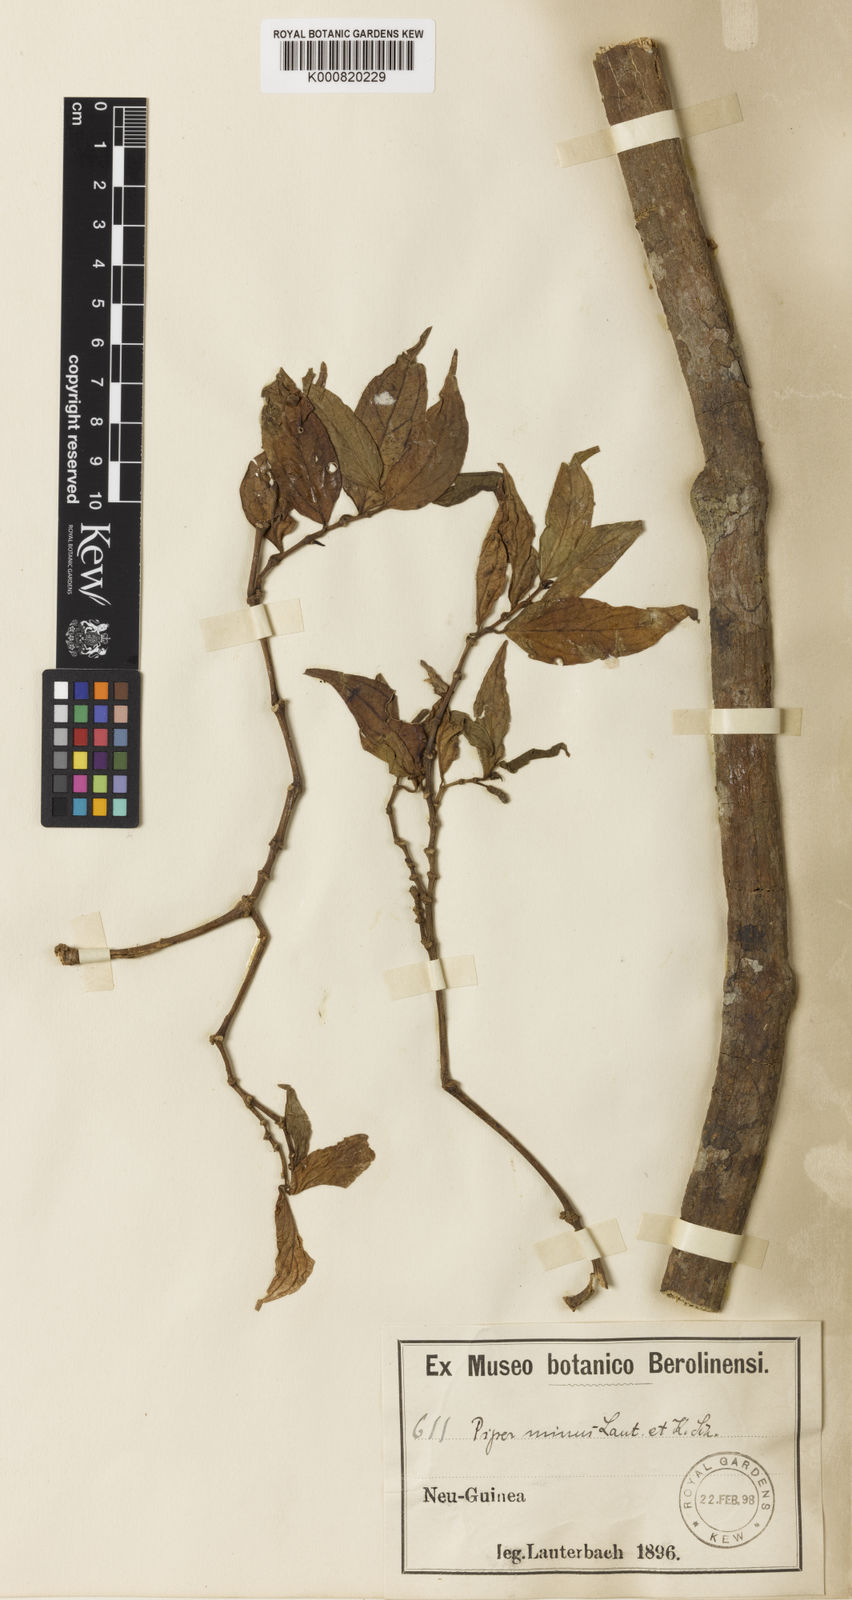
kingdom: Plantae
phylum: Tracheophyta
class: Magnoliopsida
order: Piperales
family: Piperaceae
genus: Piper
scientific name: Piper abbreviatum
